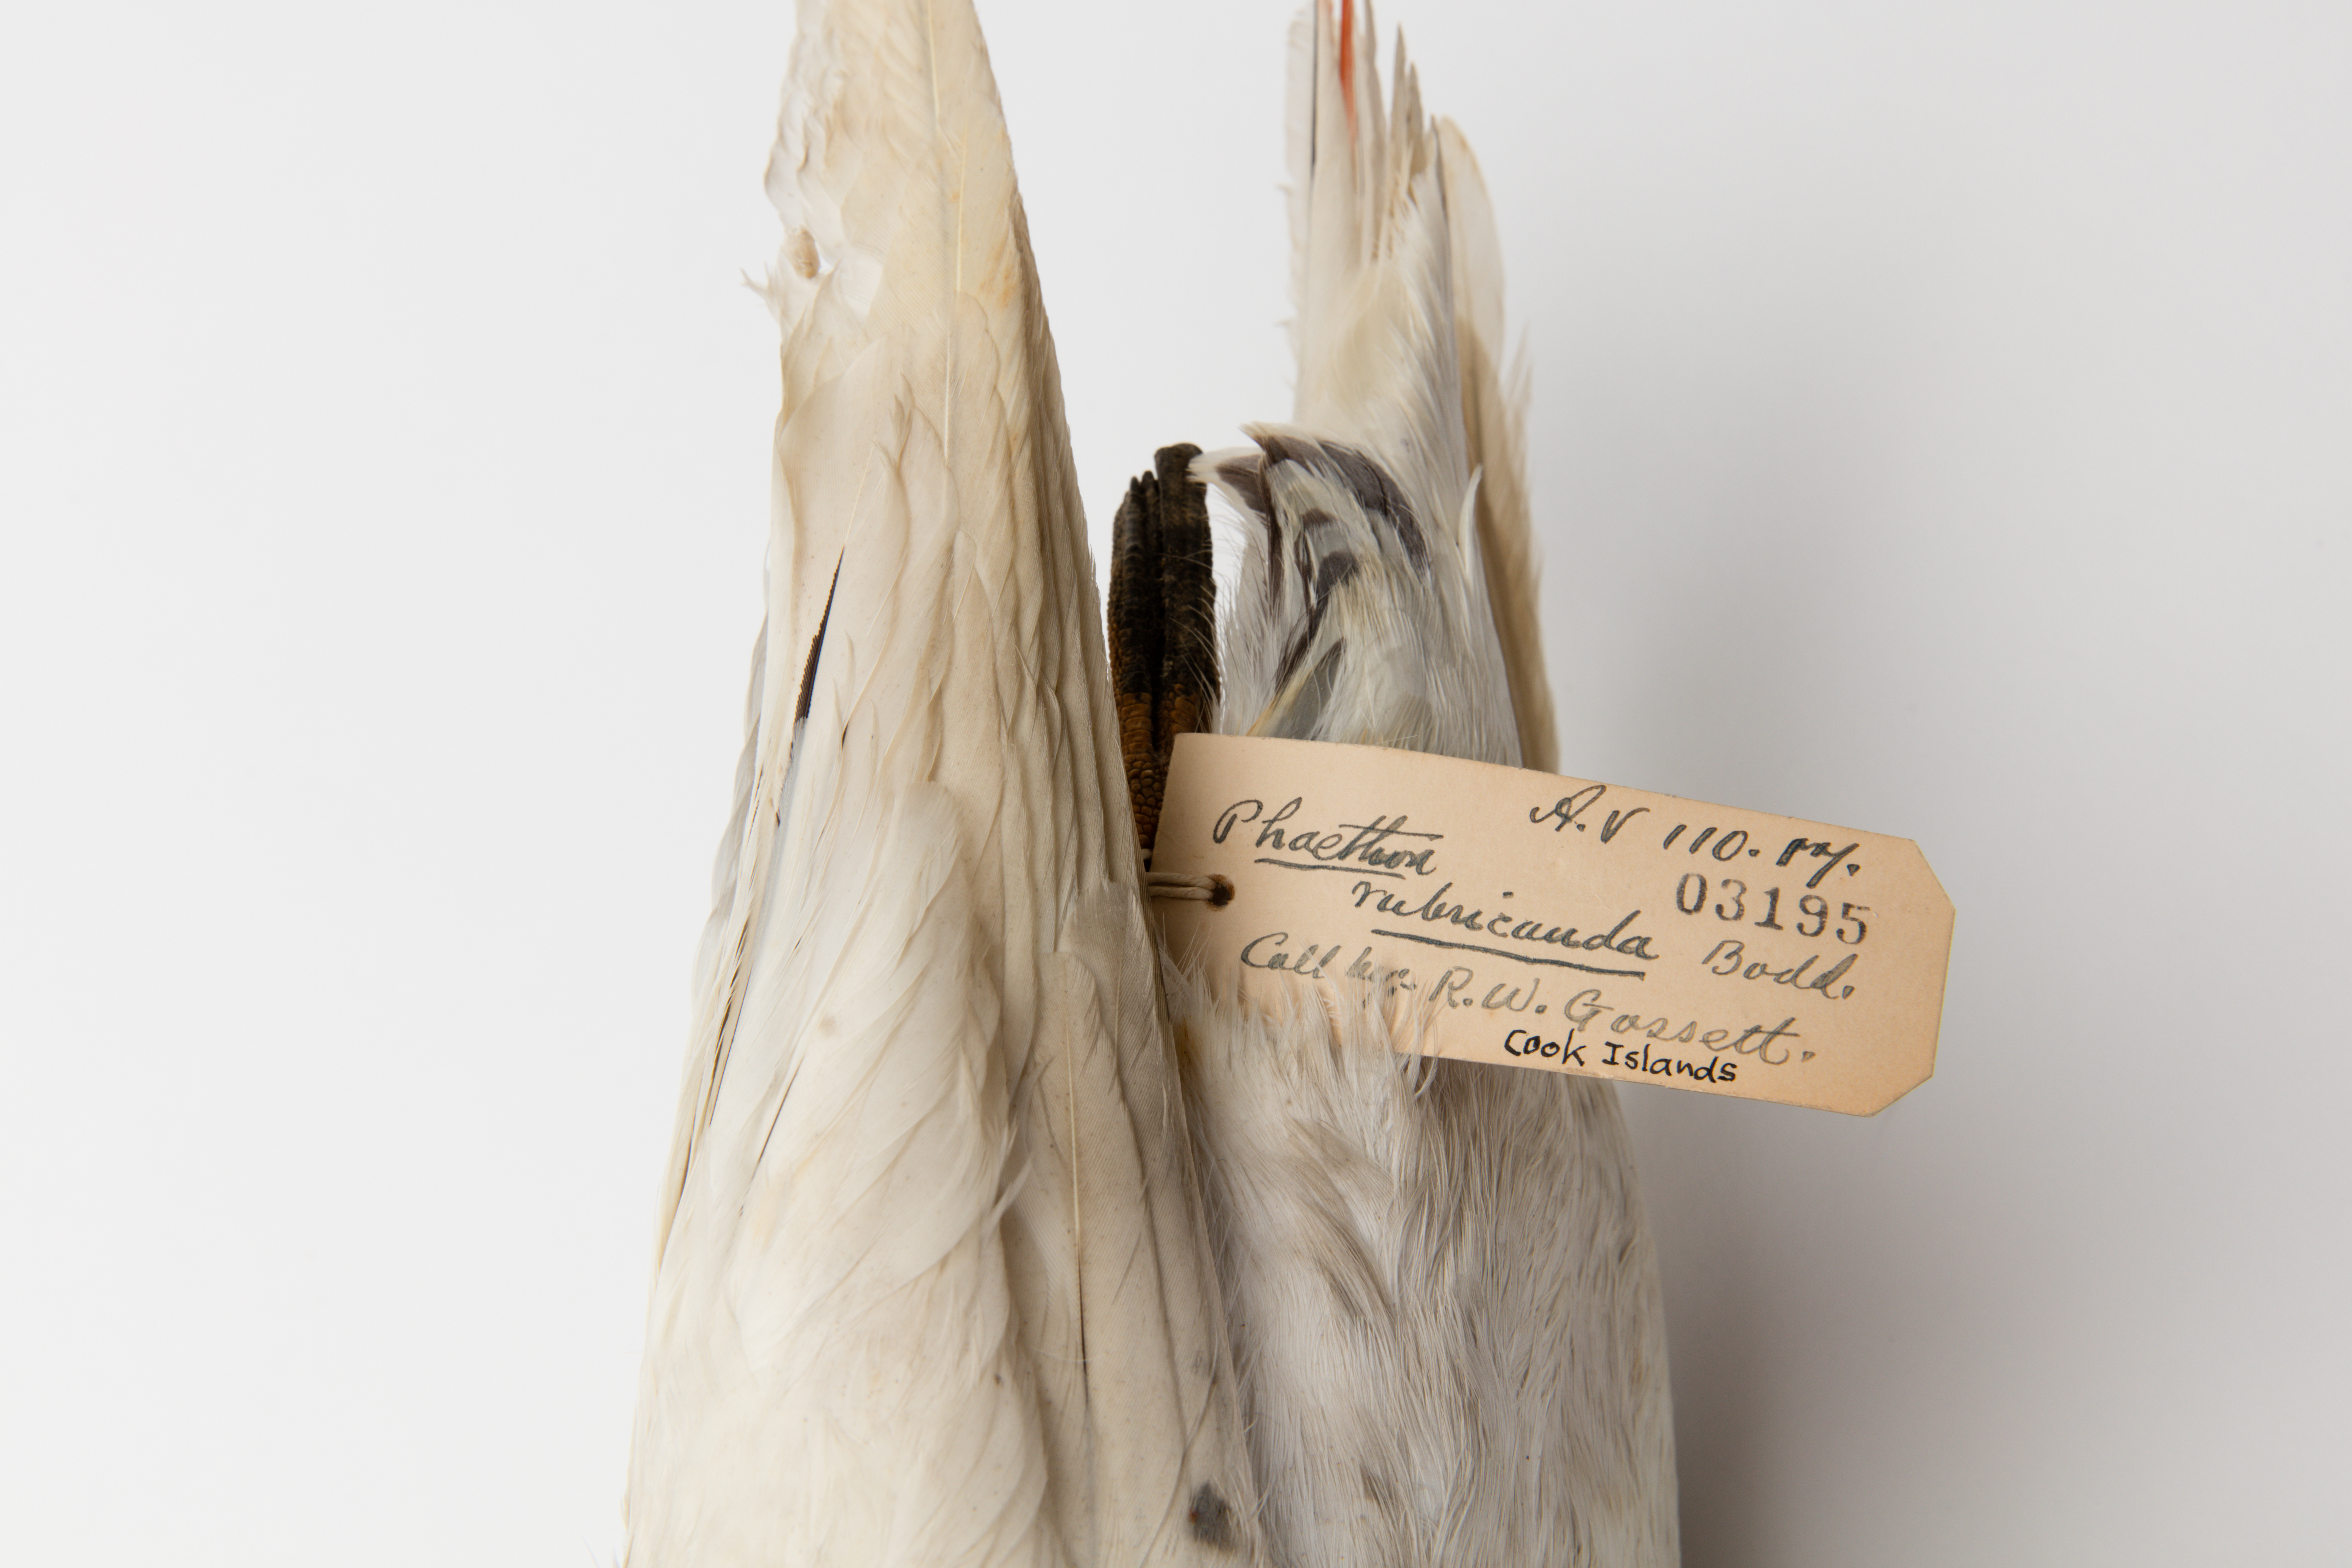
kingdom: Animalia
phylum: Chordata
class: Aves
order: Phaethontiformes
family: Phaethontidae
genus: Phaethon
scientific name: Phaethon rubricauda
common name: Red-tailed tropicbird
